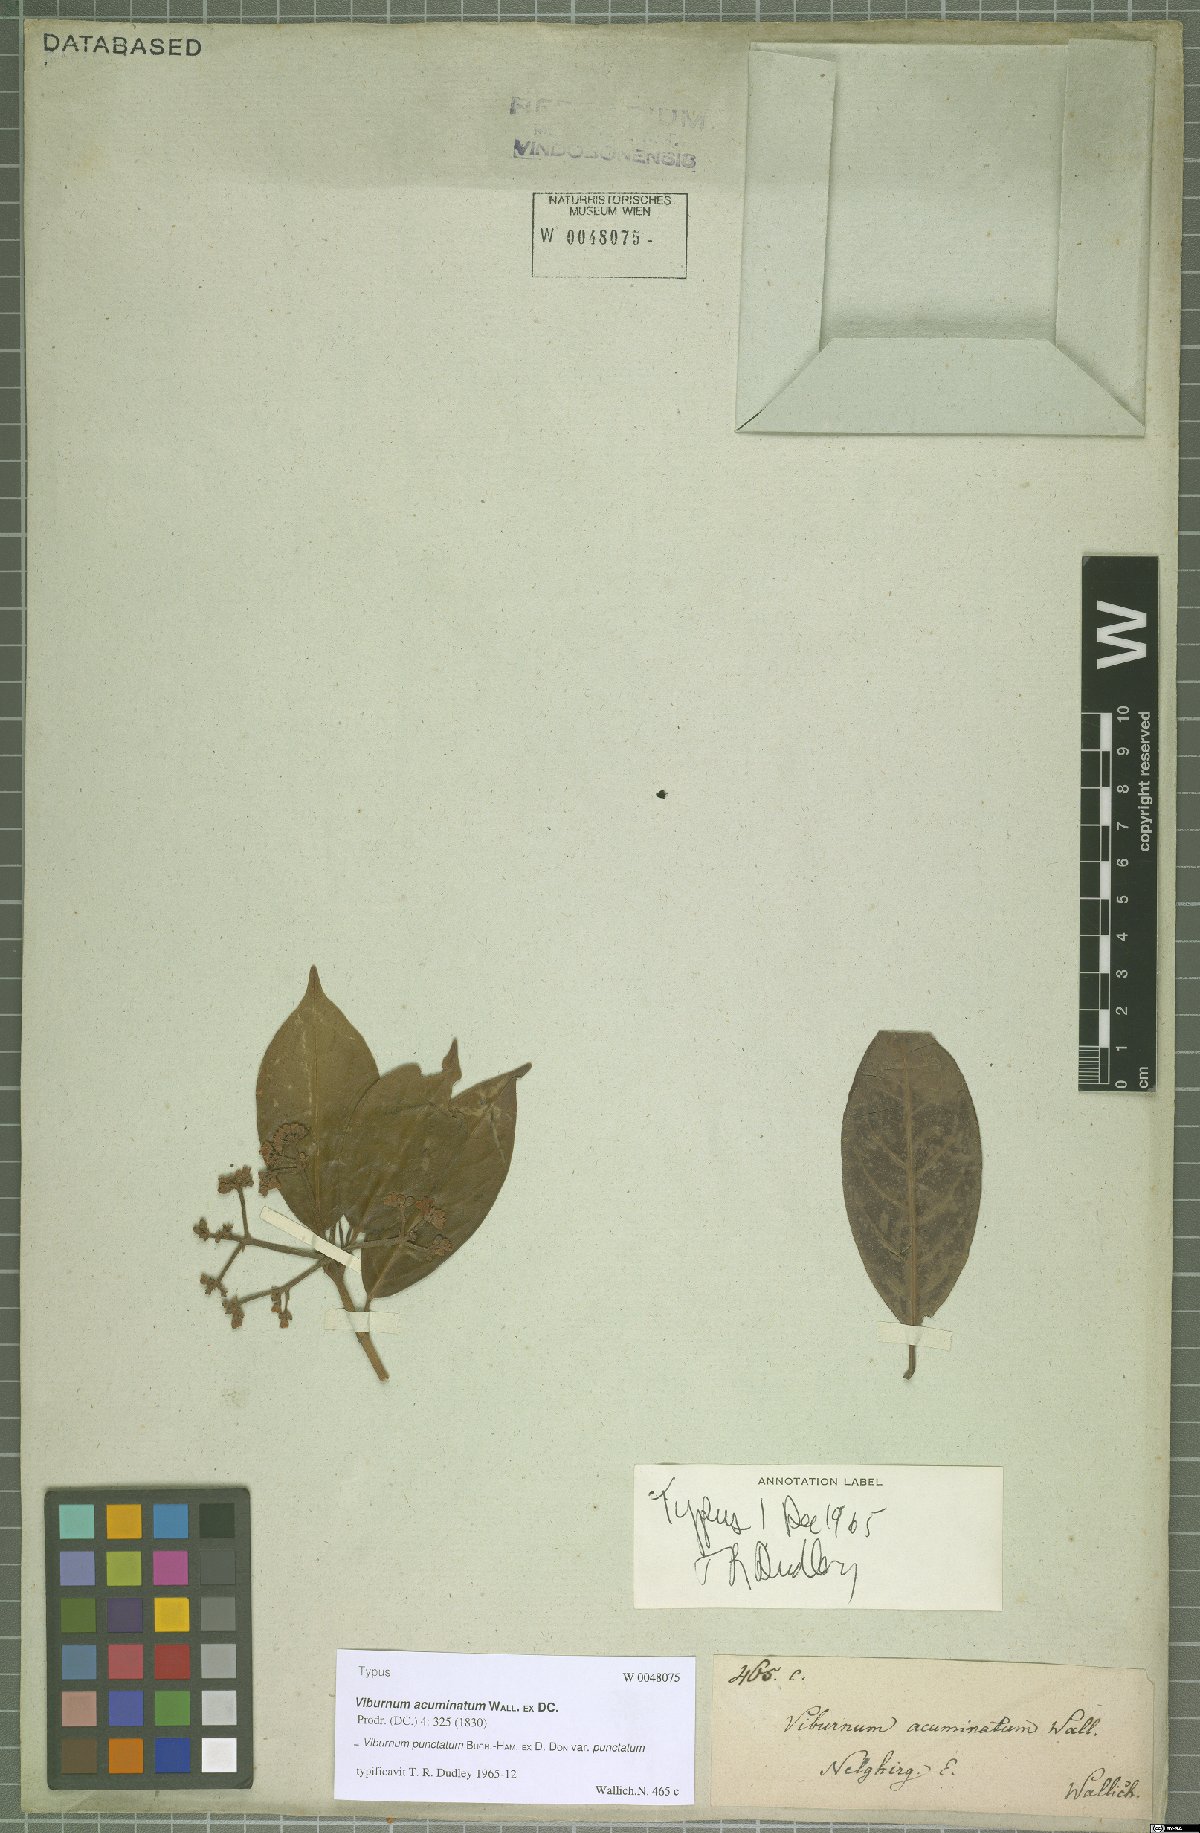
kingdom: Plantae
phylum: Tracheophyta
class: Magnoliopsida
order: Dipsacales
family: Viburnaceae
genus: Viburnum
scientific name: Viburnum punctatum
